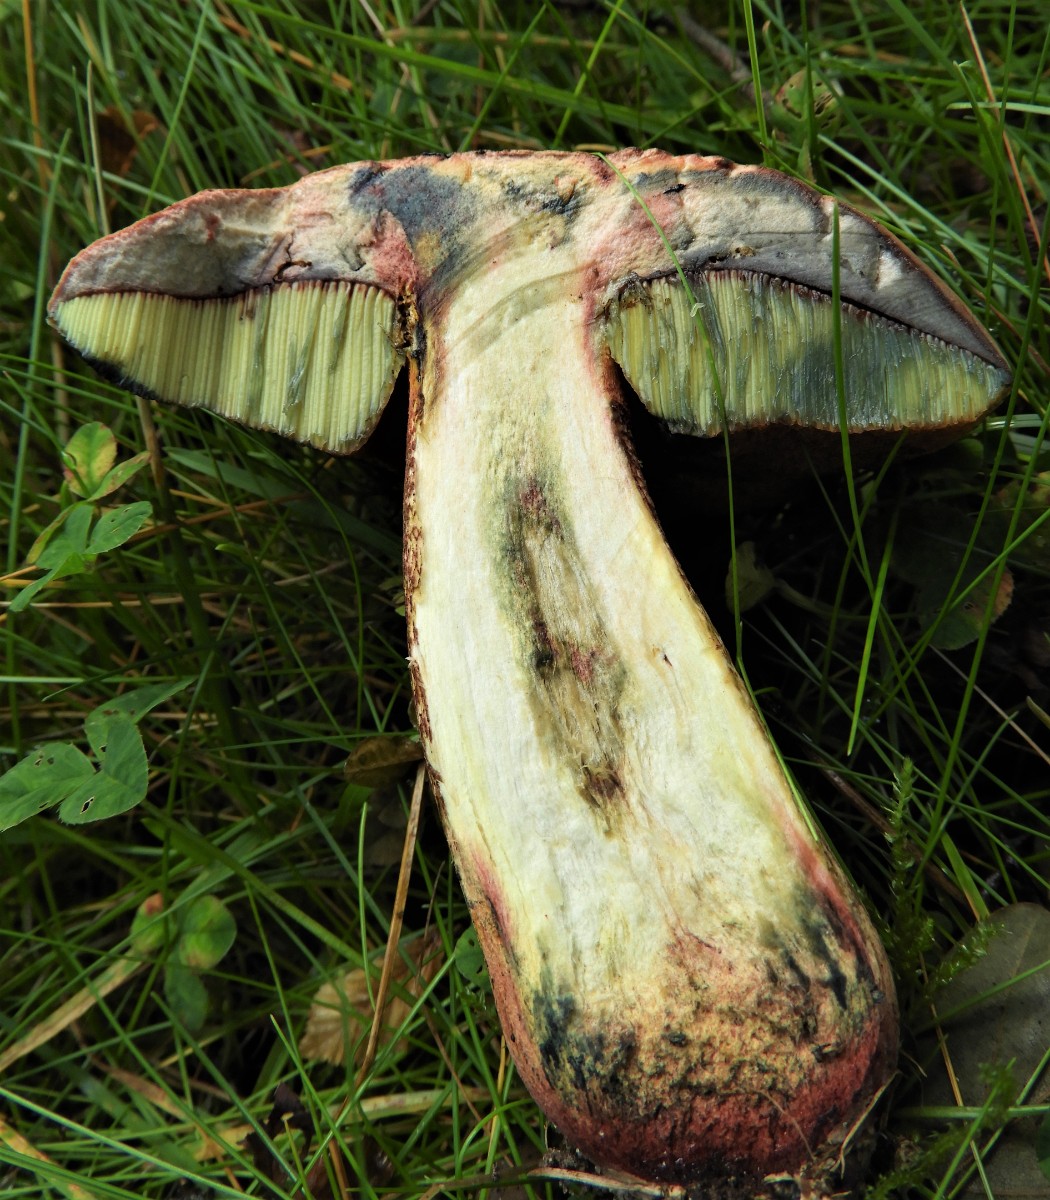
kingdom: Fungi
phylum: Basidiomycota
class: Agaricomycetes
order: Boletales
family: Boletaceae
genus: Suillellus
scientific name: Suillellus luridus
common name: netstokket indigorørhat
